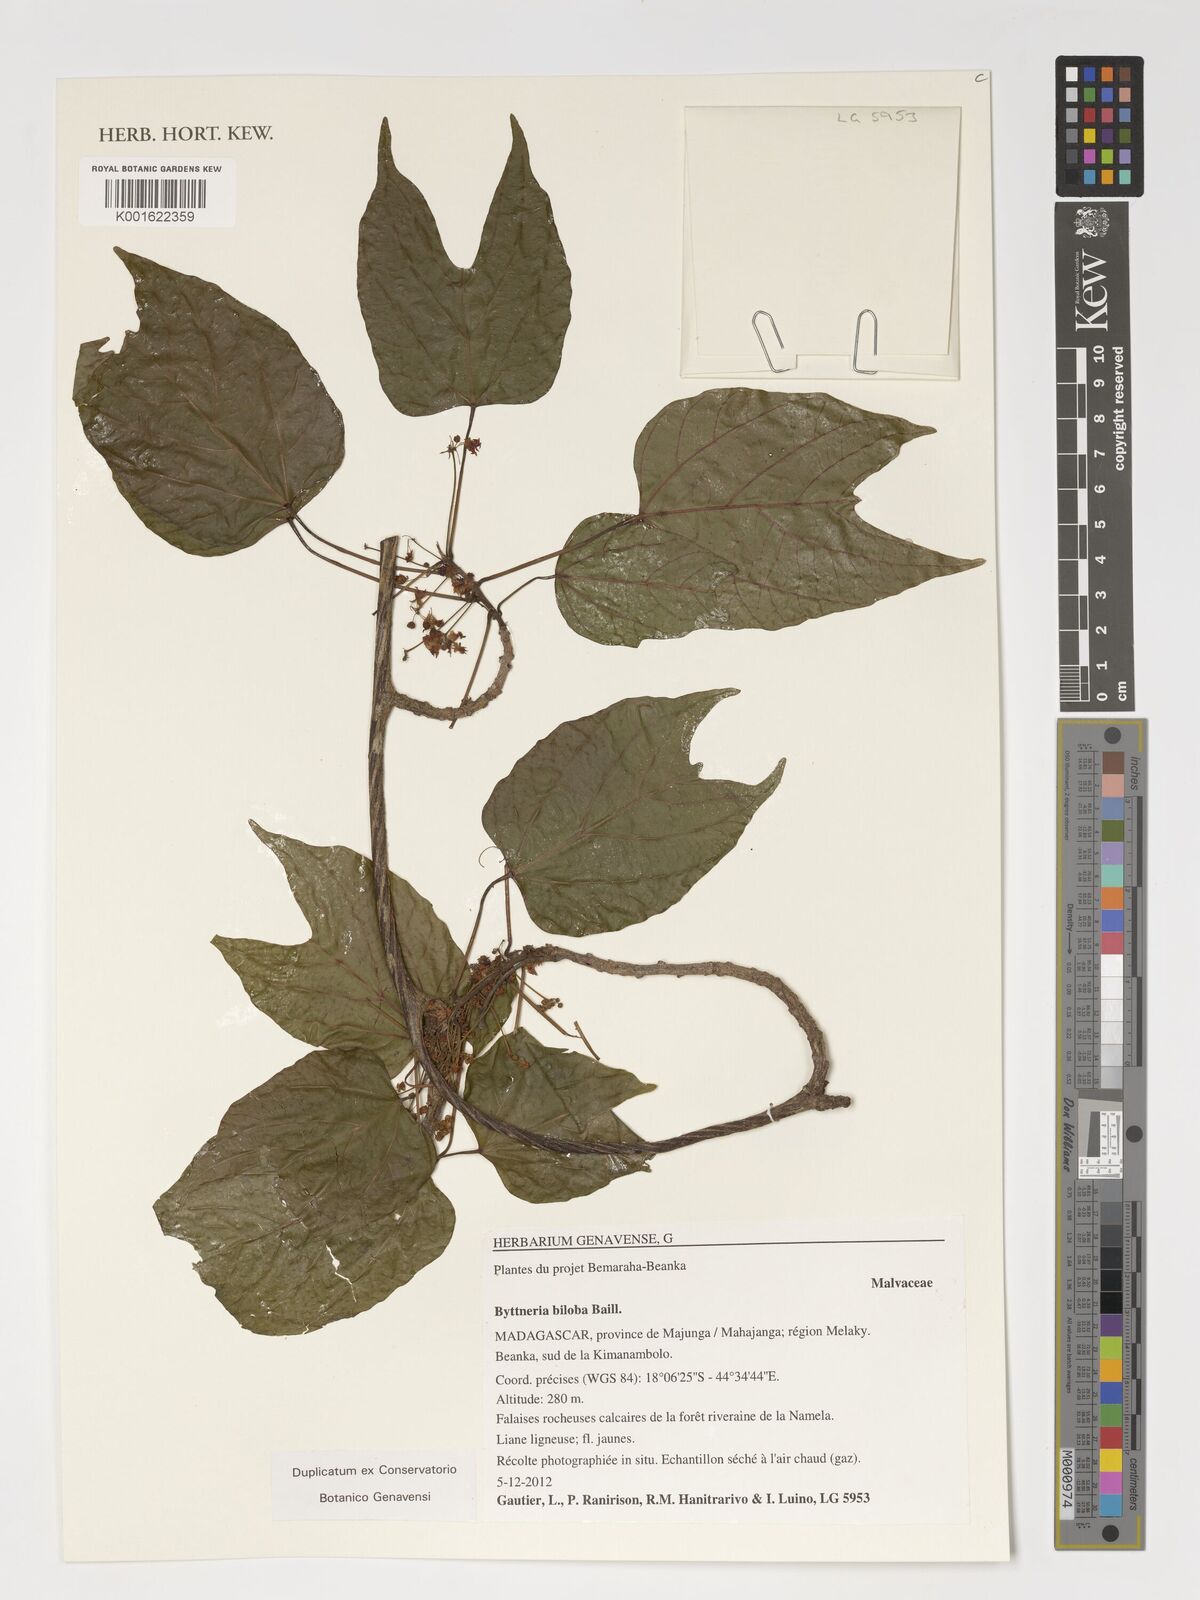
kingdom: Plantae
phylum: Tracheophyta
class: Magnoliopsida
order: Malvales
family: Malvaceae
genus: Byttneria
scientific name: Byttneria biloba
